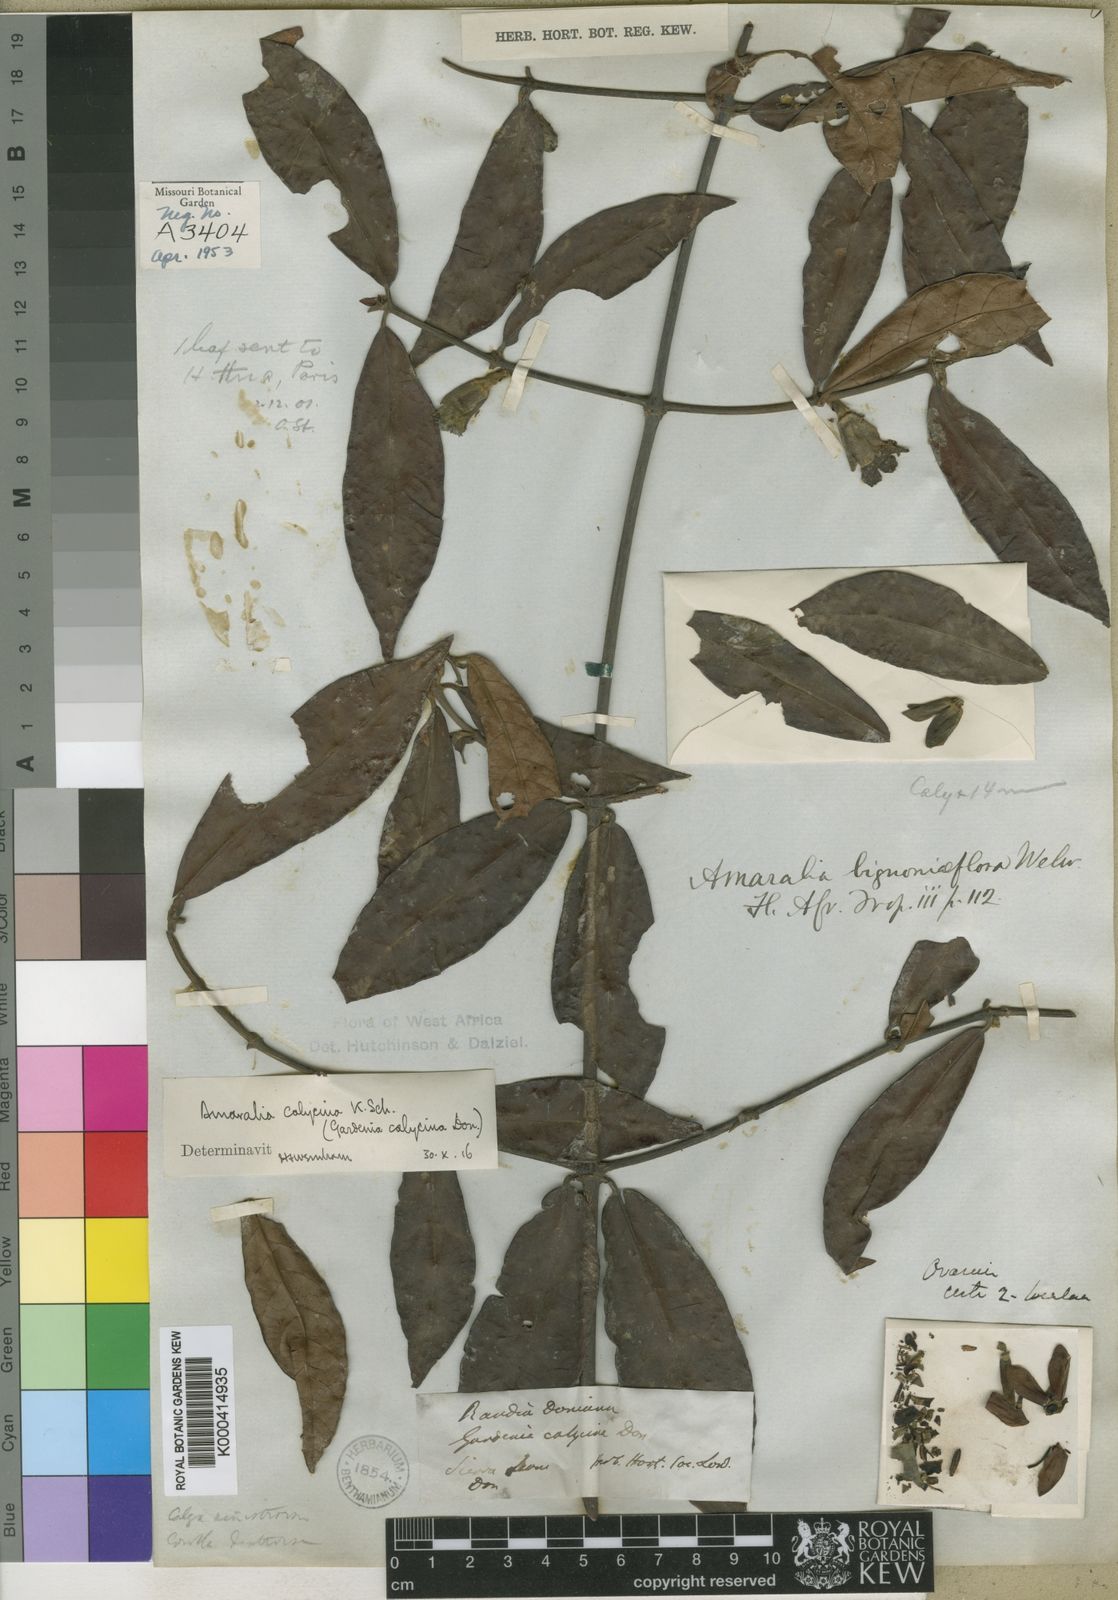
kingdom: Plantae
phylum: Tracheophyta
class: Magnoliopsida
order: Gentianales
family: Rubiaceae
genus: Sherbournia
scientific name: Sherbournia
